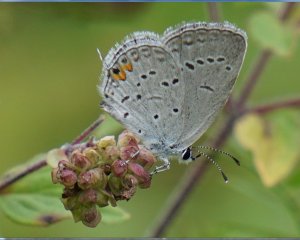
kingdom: Animalia
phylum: Arthropoda
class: Insecta
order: Lepidoptera
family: Lycaenidae
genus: Elkalyce
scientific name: Elkalyce comyntas
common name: Eastern Tailed-Blue
